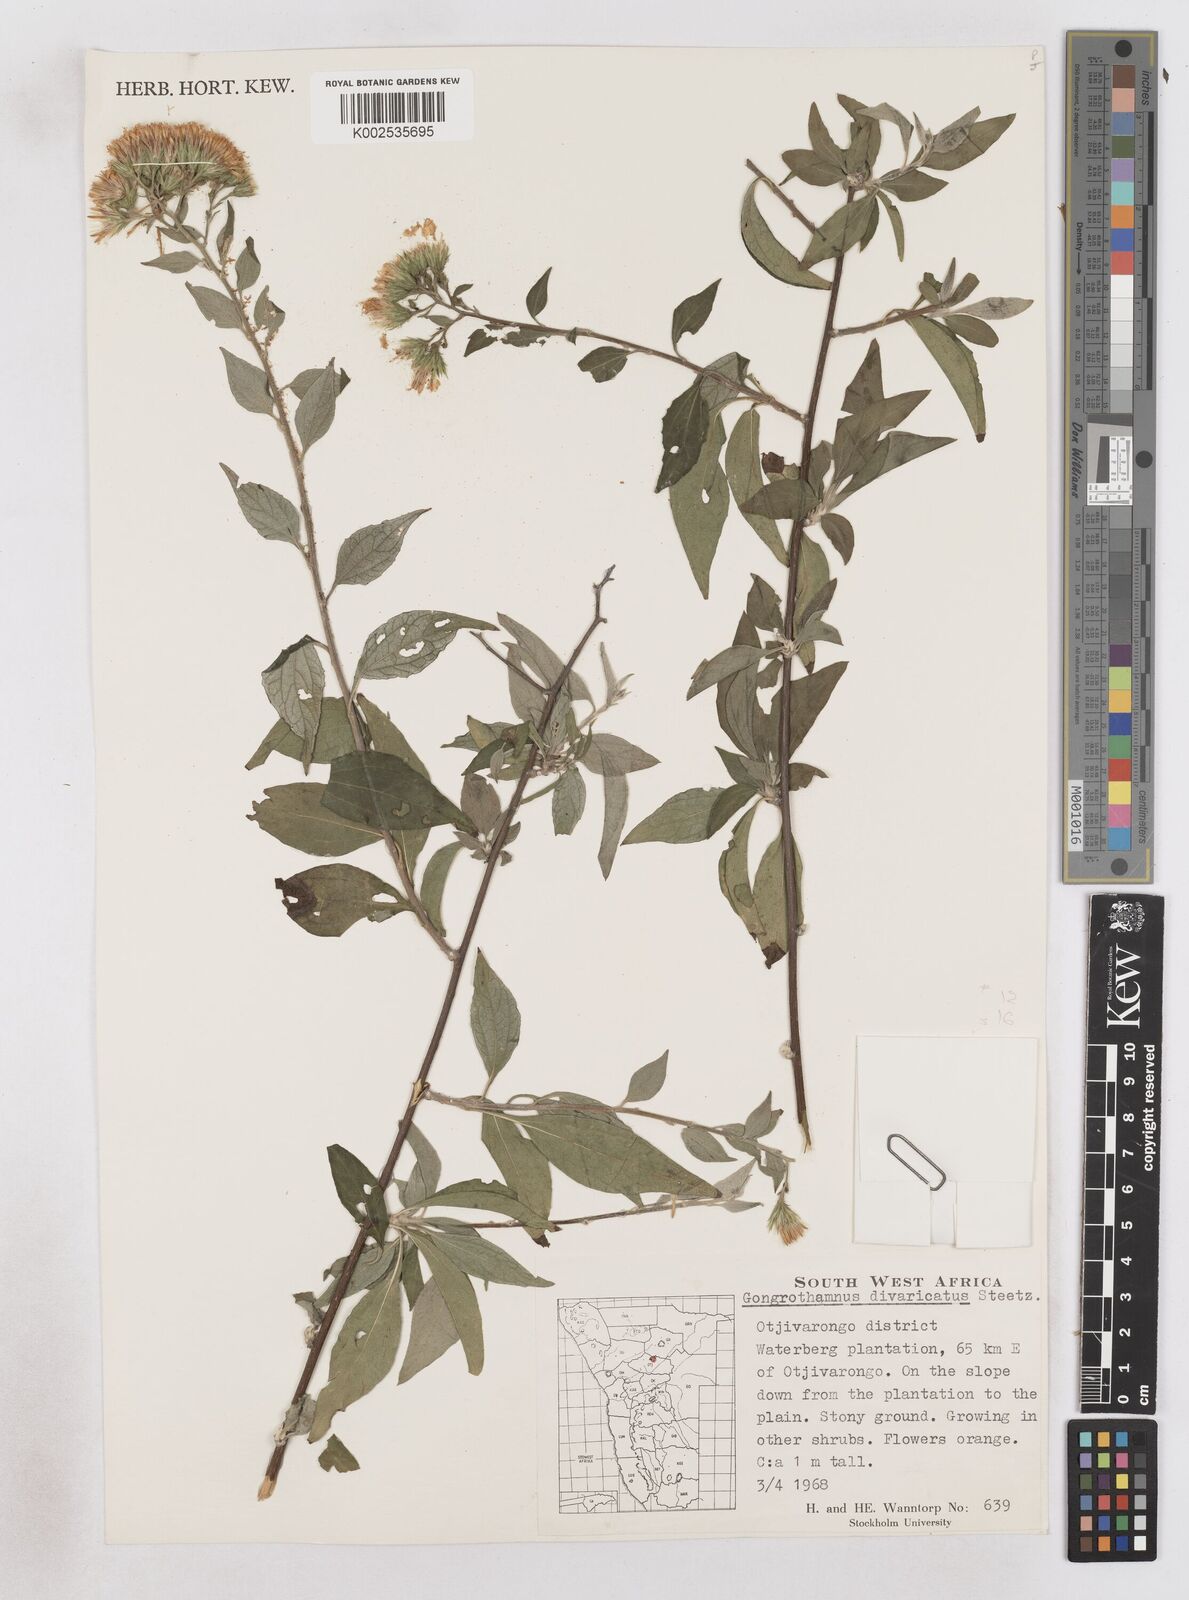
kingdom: Plantae
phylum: Tracheophyta
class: Magnoliopsida
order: Asterales
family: Asteraceae
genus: Distephanus
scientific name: Distephanus
